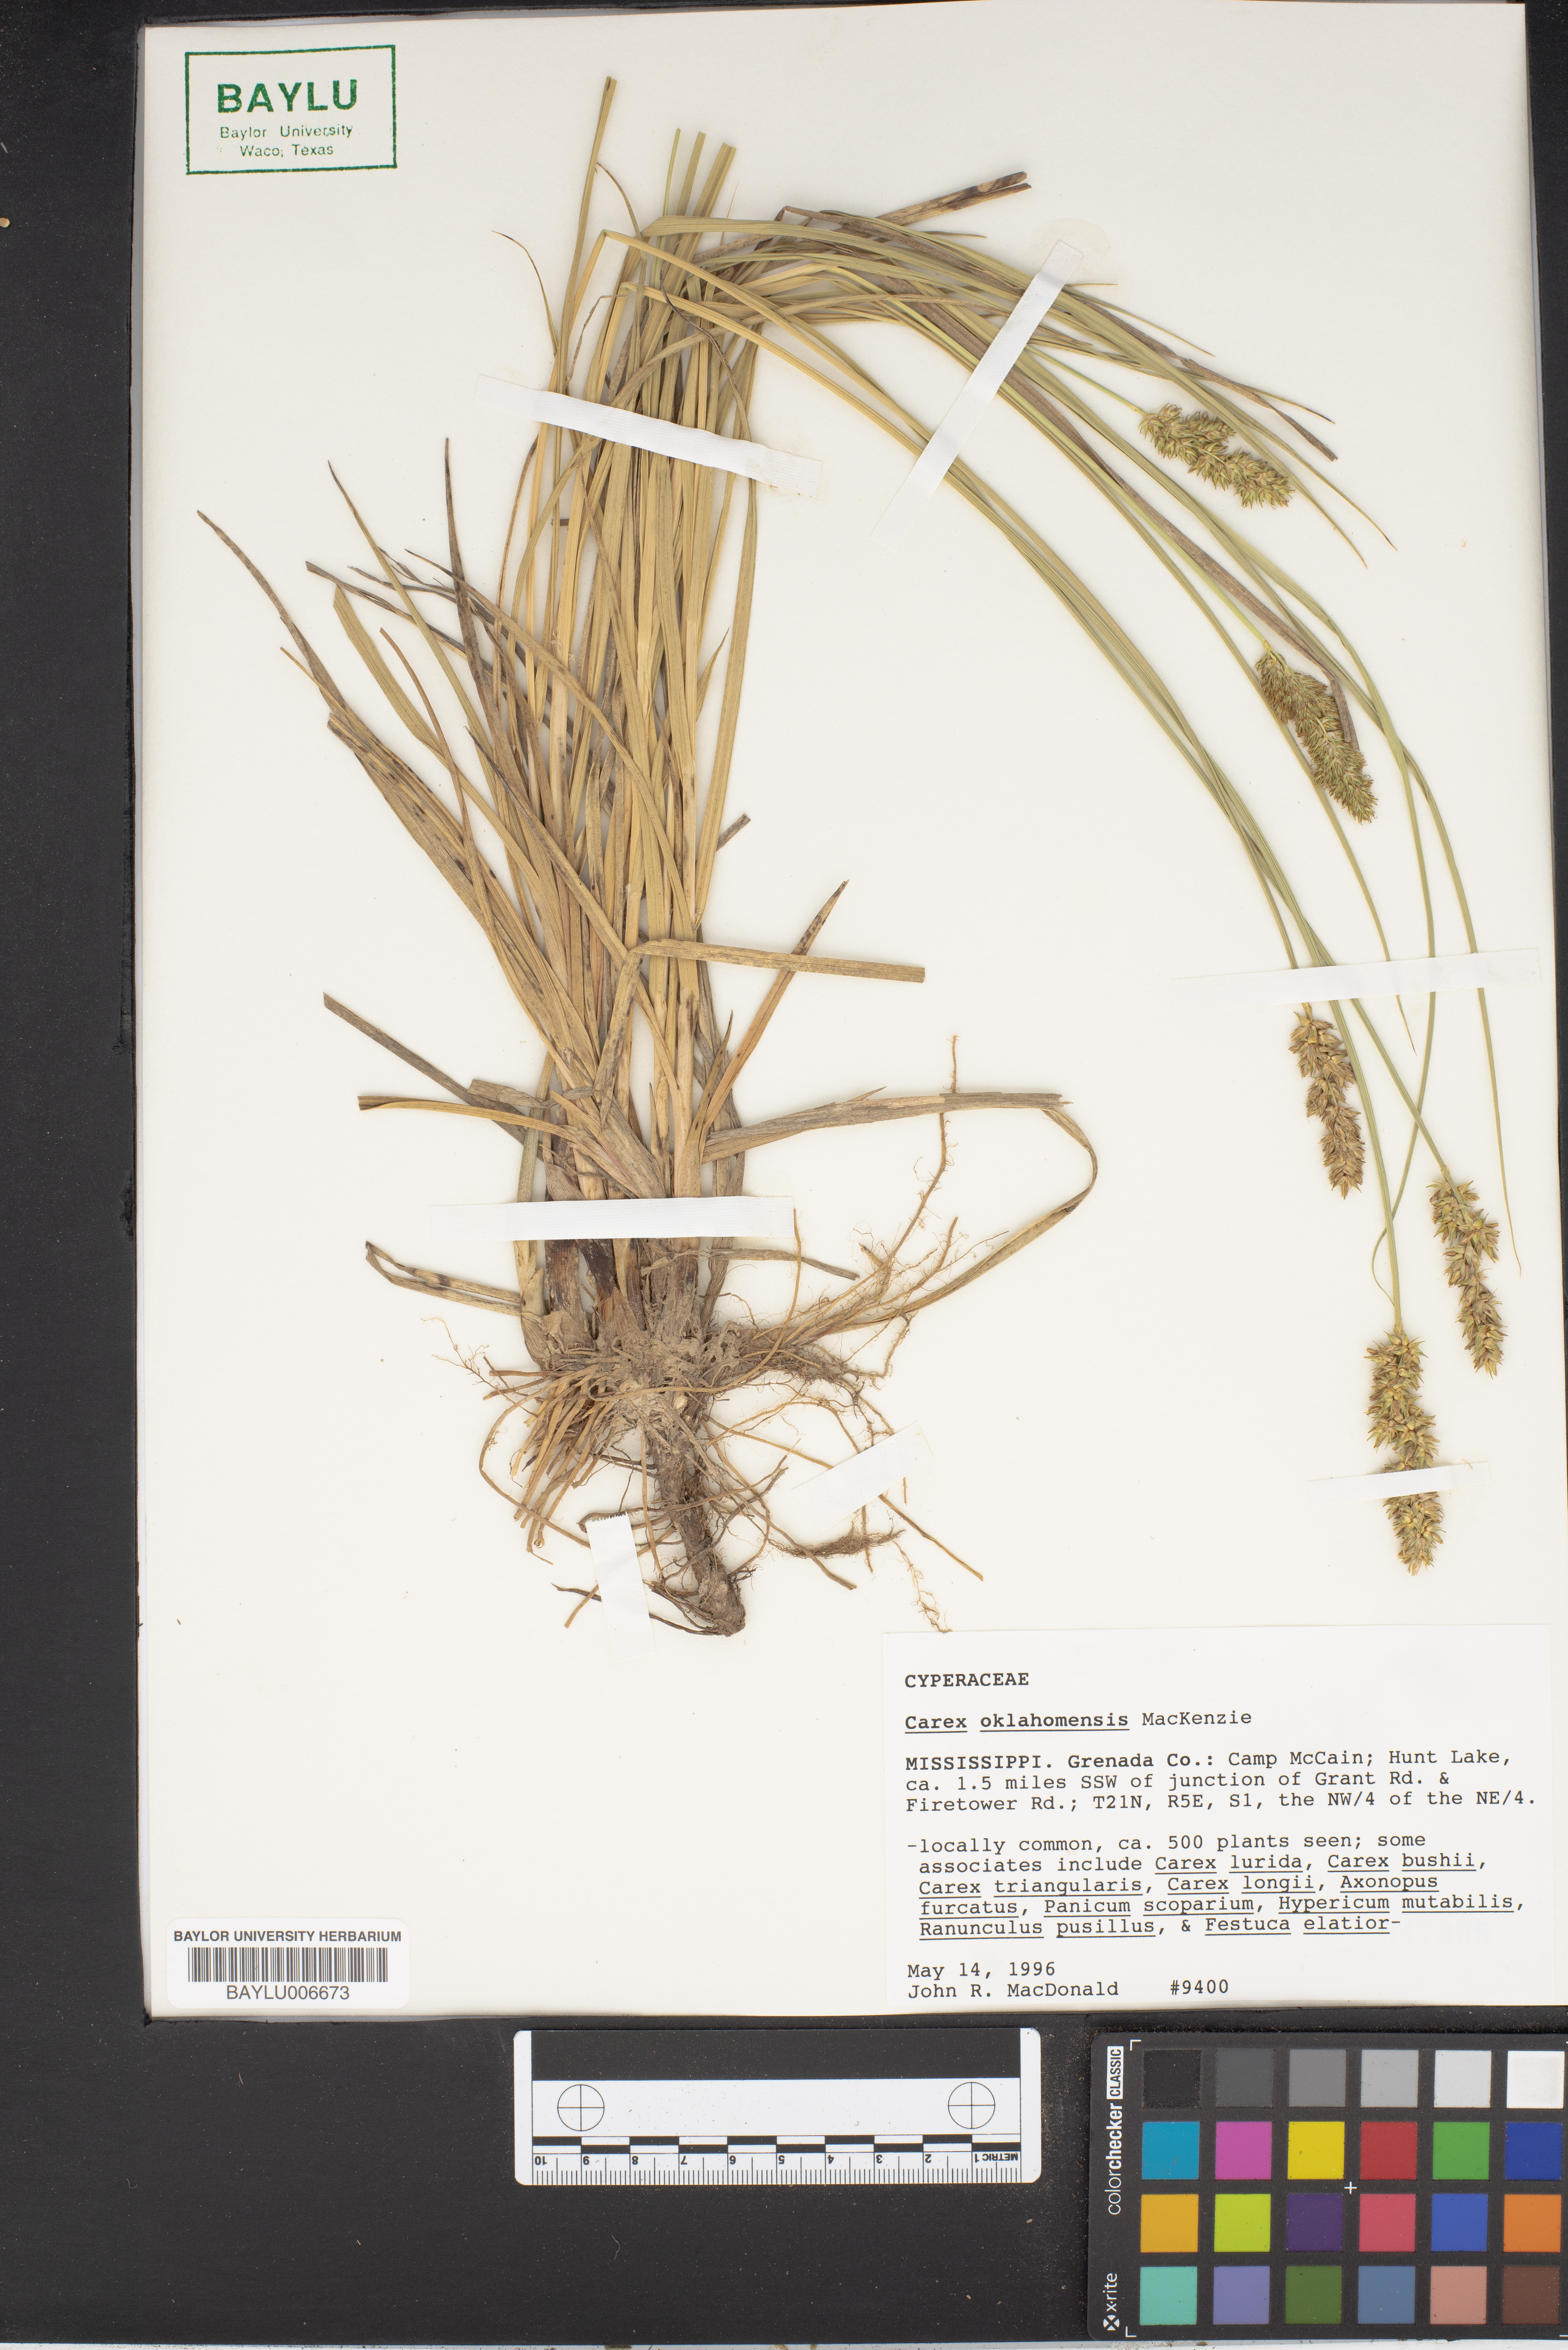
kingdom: Plantae
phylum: Tracheophyta
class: Liliopsida
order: Poales
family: Cyperaceae
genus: Carex
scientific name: Carex oklahomensis
